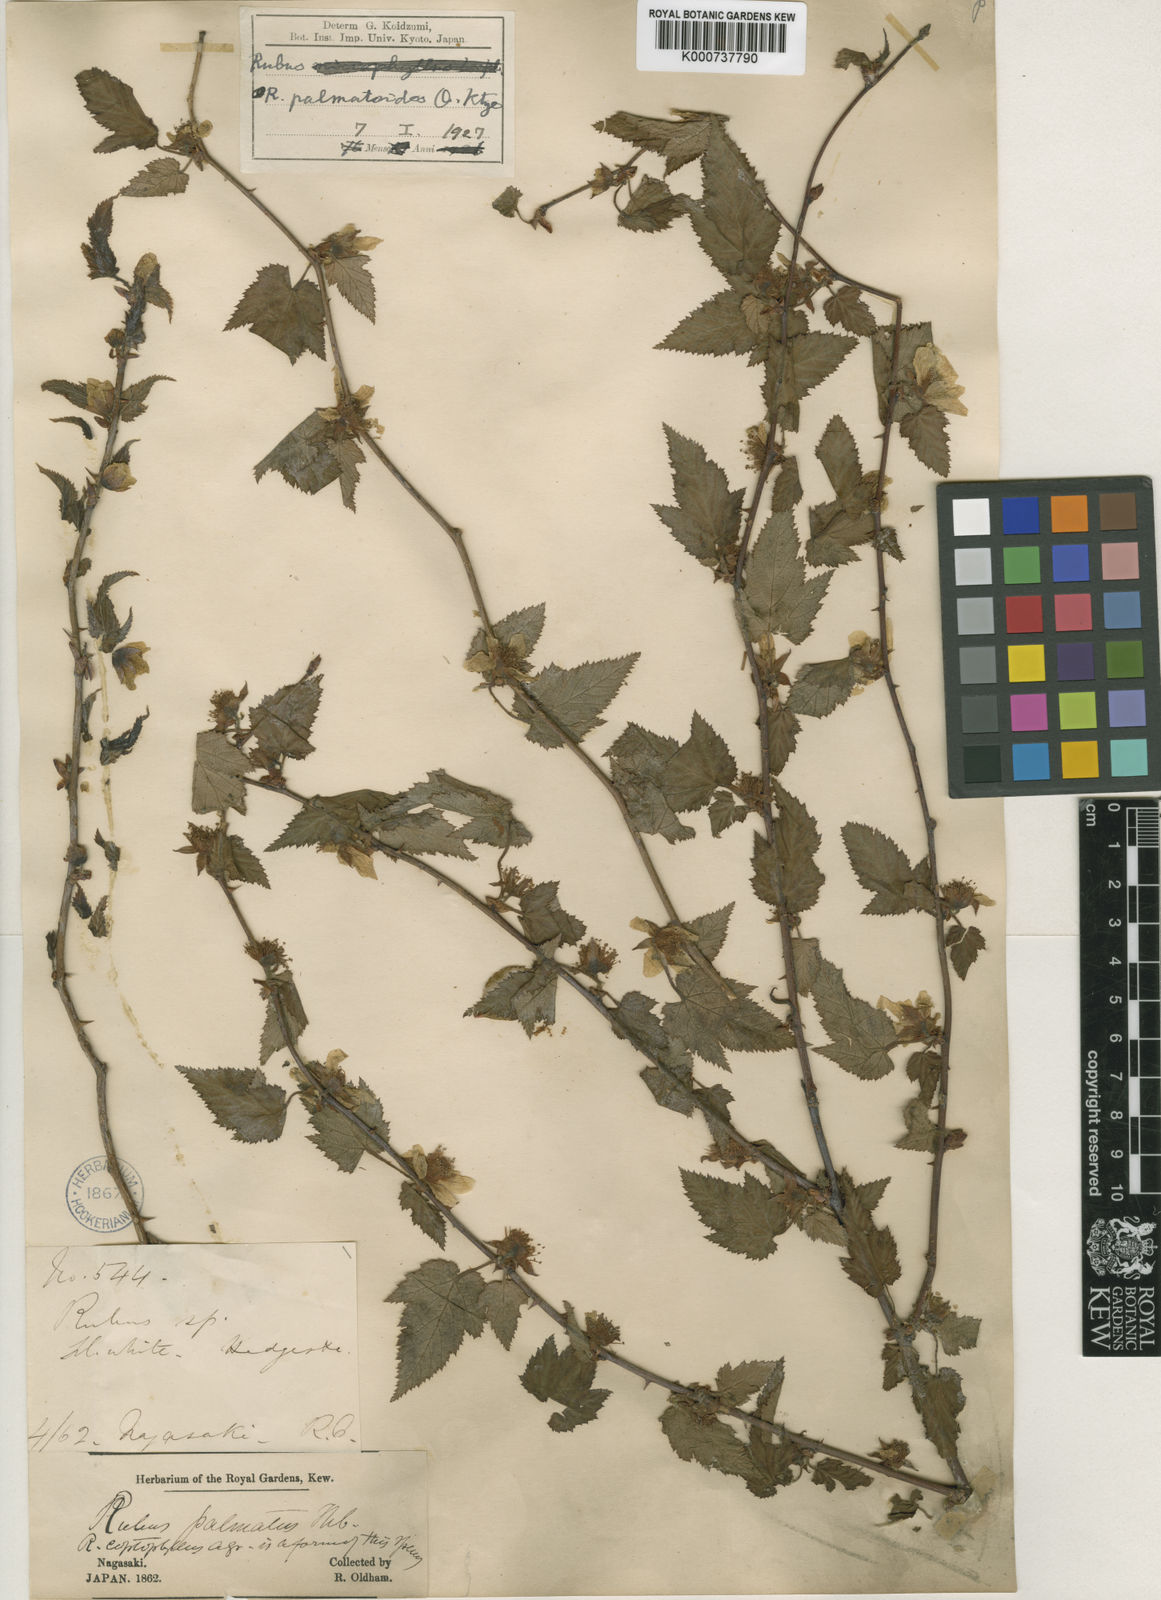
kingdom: Plantae
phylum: Tracheophyta
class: Magnoliopsida
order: Rosales
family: Rosaceae
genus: Rubus
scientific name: Rubus palmatus
